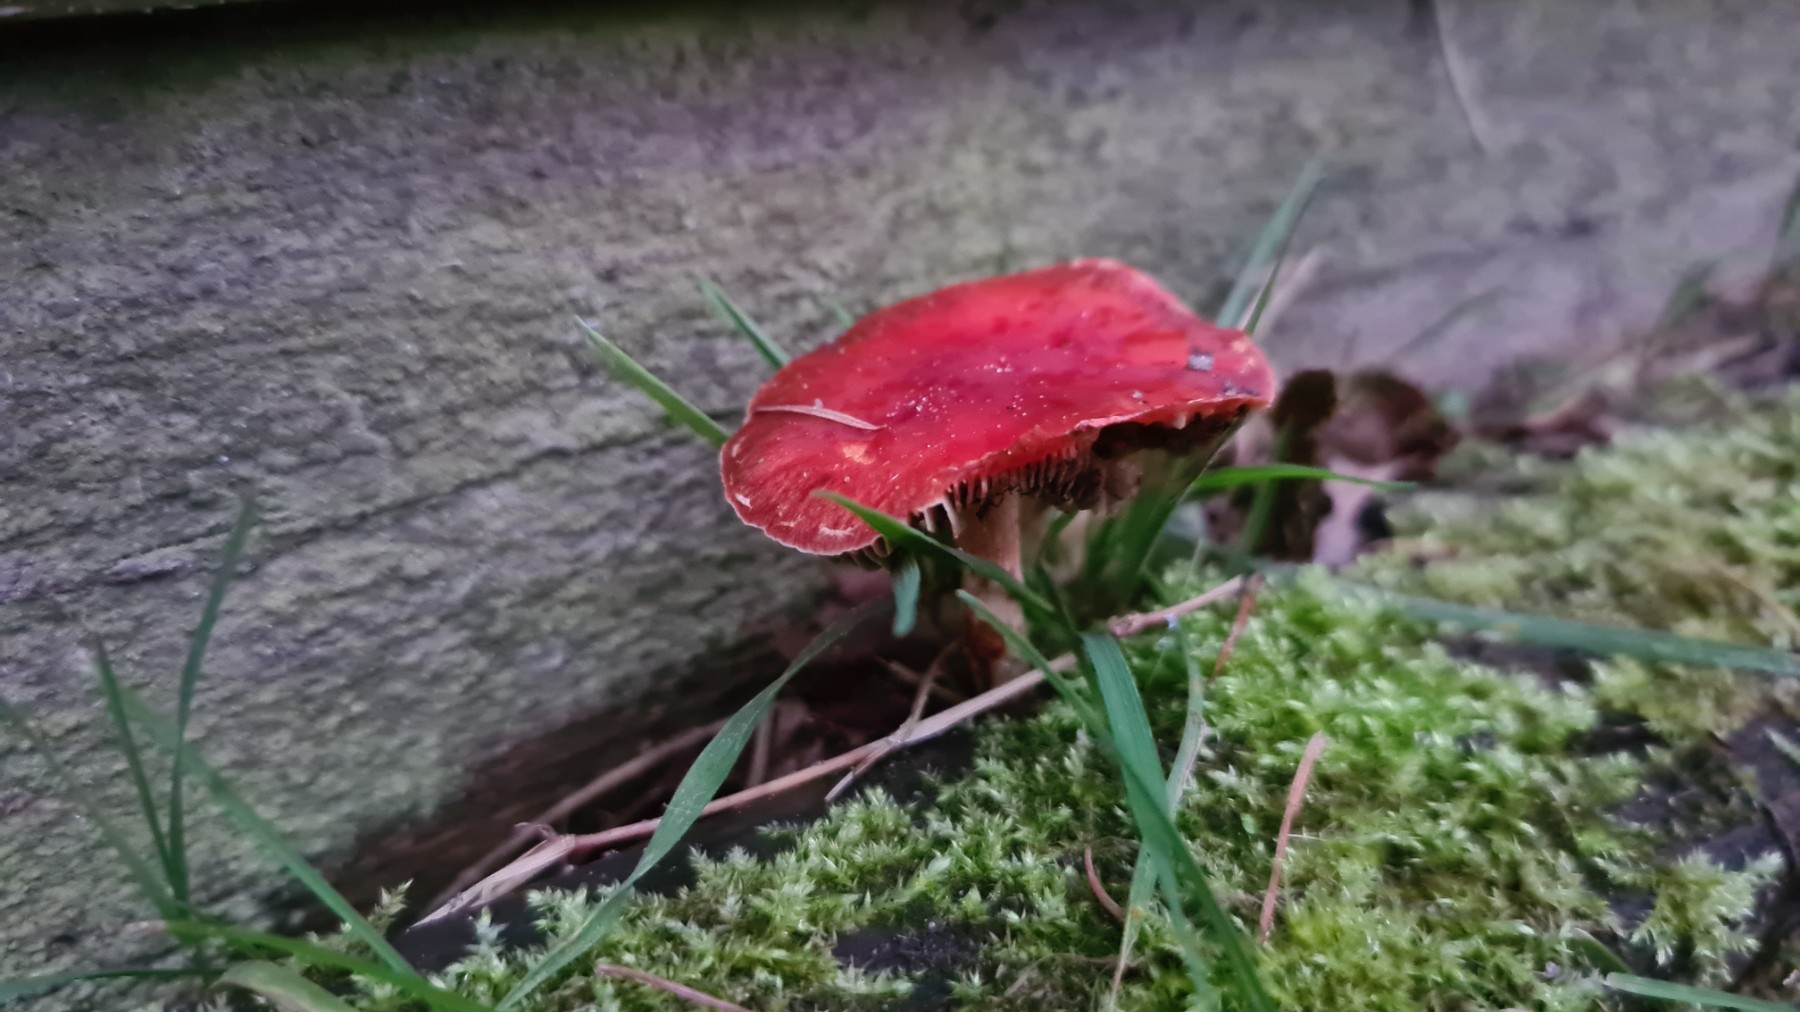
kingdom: Fungi
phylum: Basidiomycota
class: Agaricomycetes
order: Agaricales
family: Strophariaceae
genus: Leratiomyces
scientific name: Leratiomyces ceres
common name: orange bredblad
